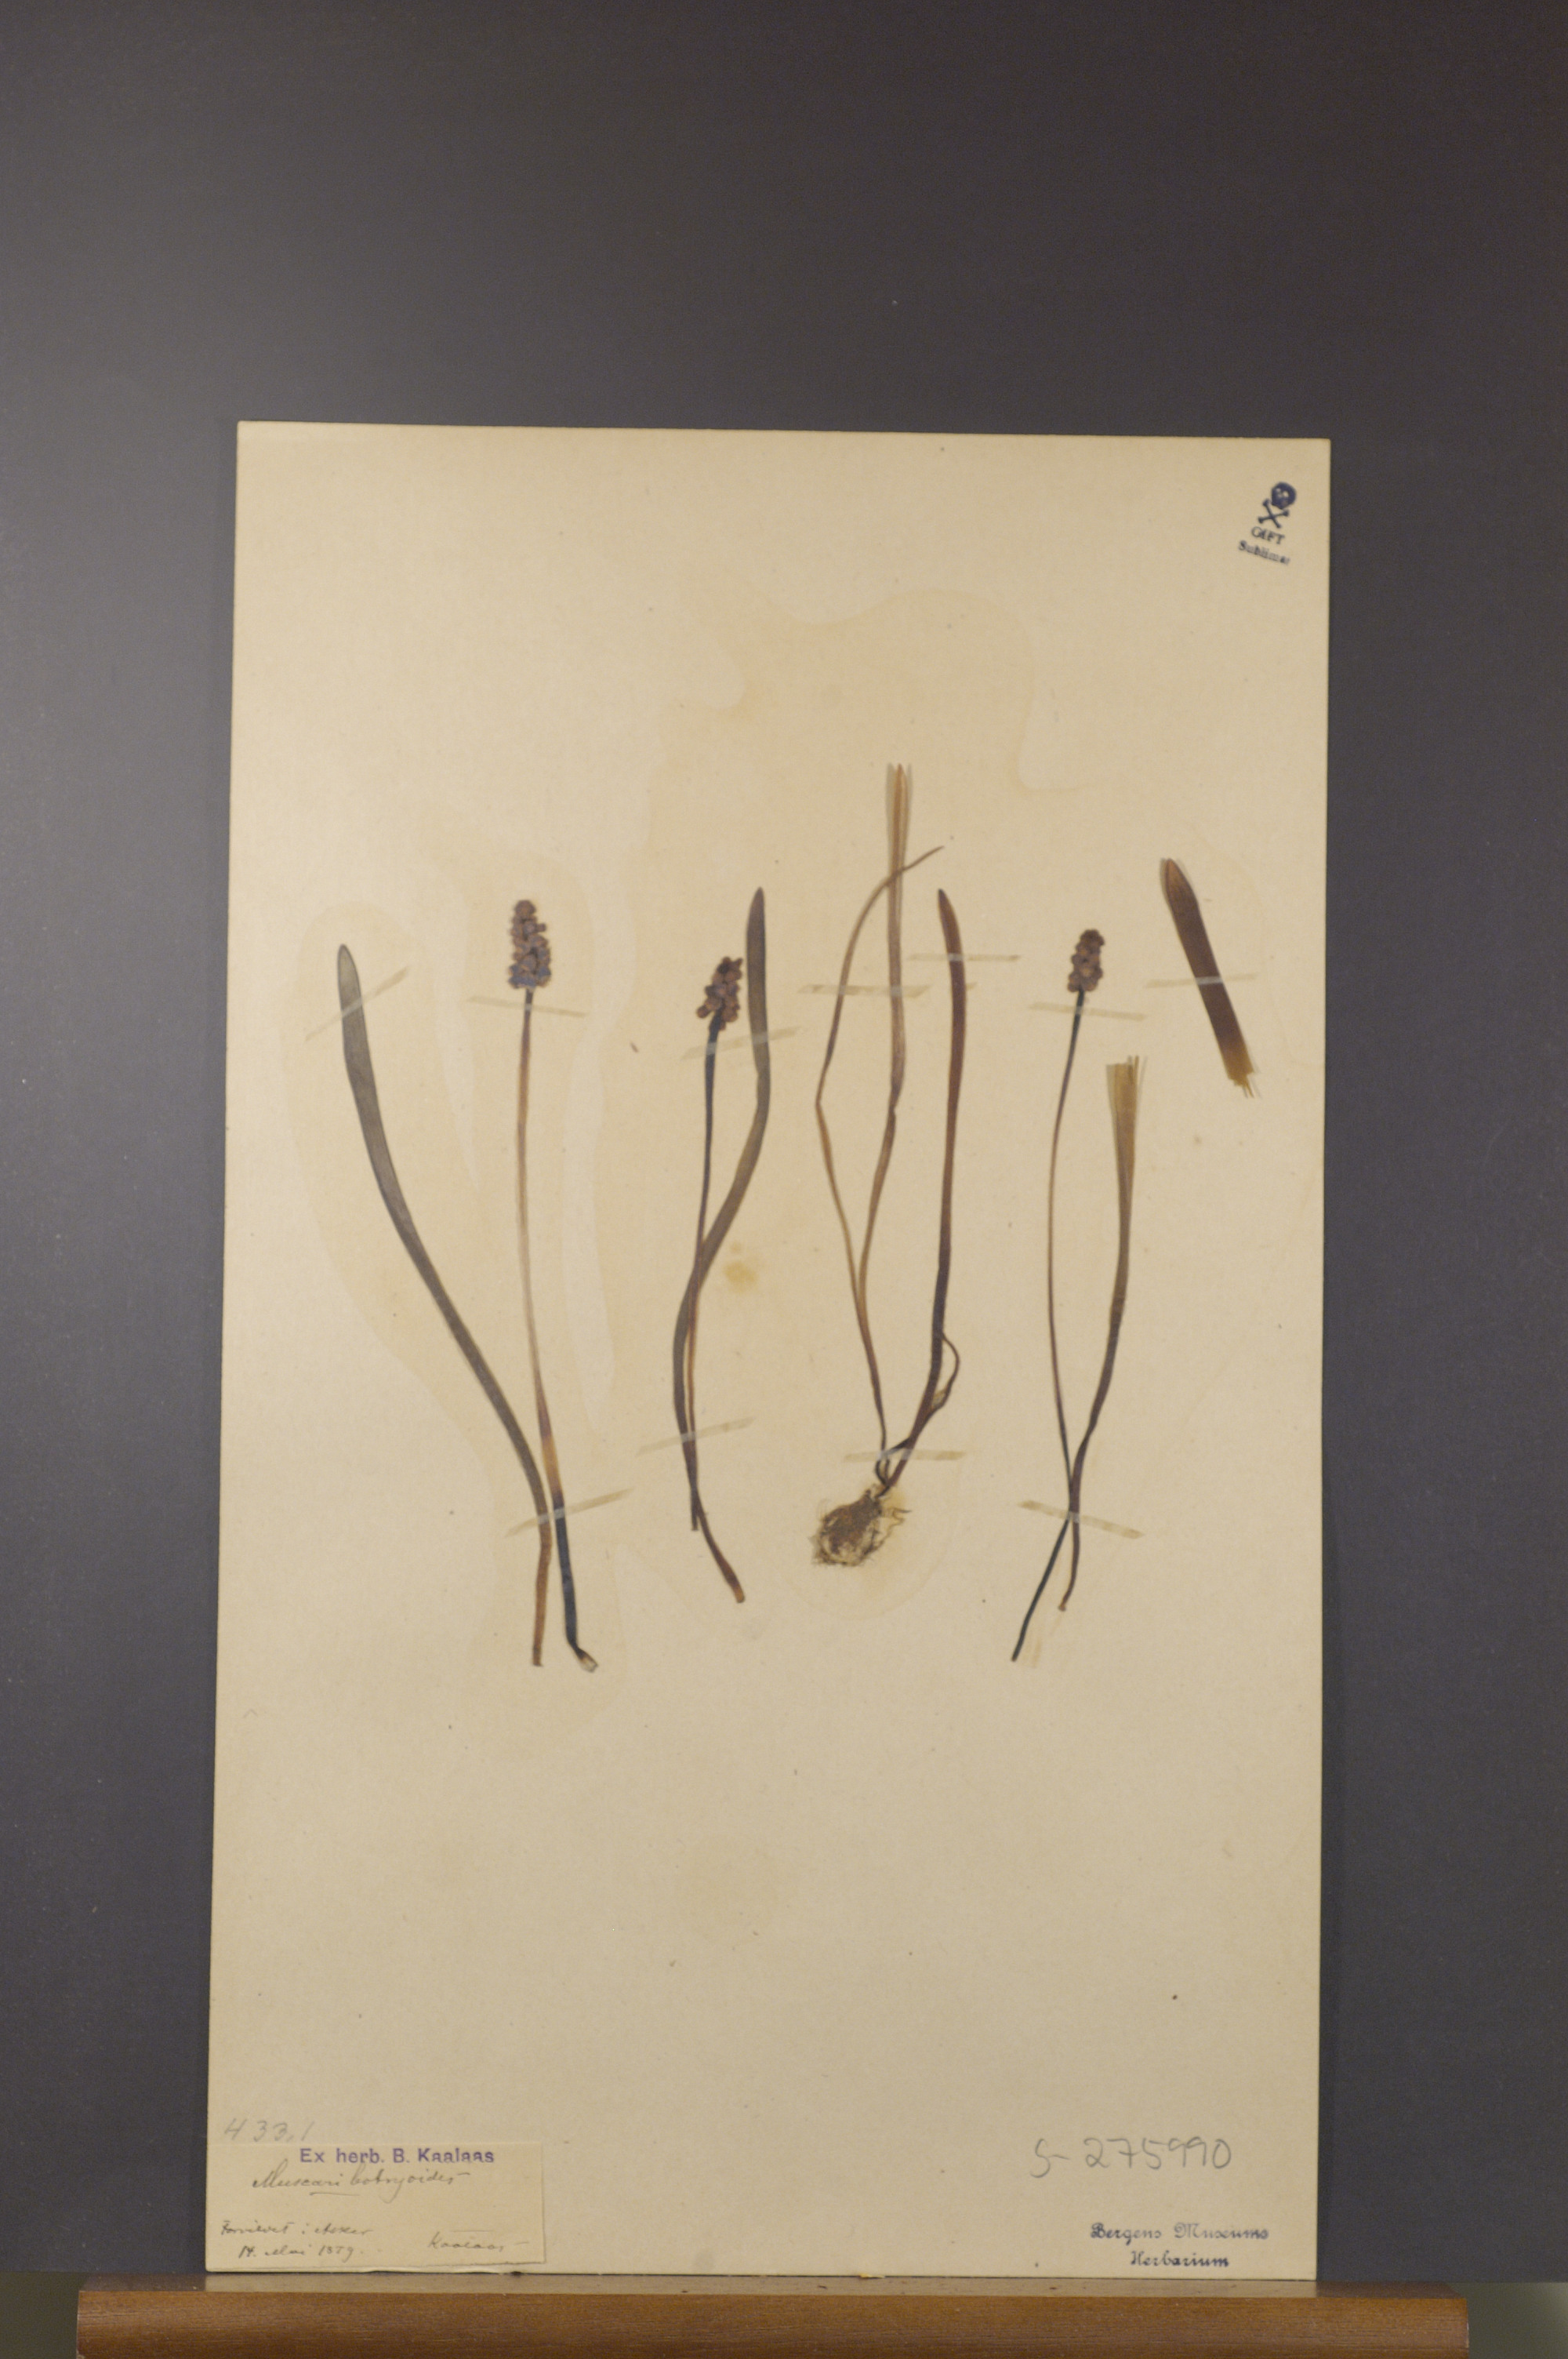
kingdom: Plantae
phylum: Tracheophyta
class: Liliopsida
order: Asparagales
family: Asparagaceae
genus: Muscari
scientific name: Muscari botryoides
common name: Compact grape-hyacinth
